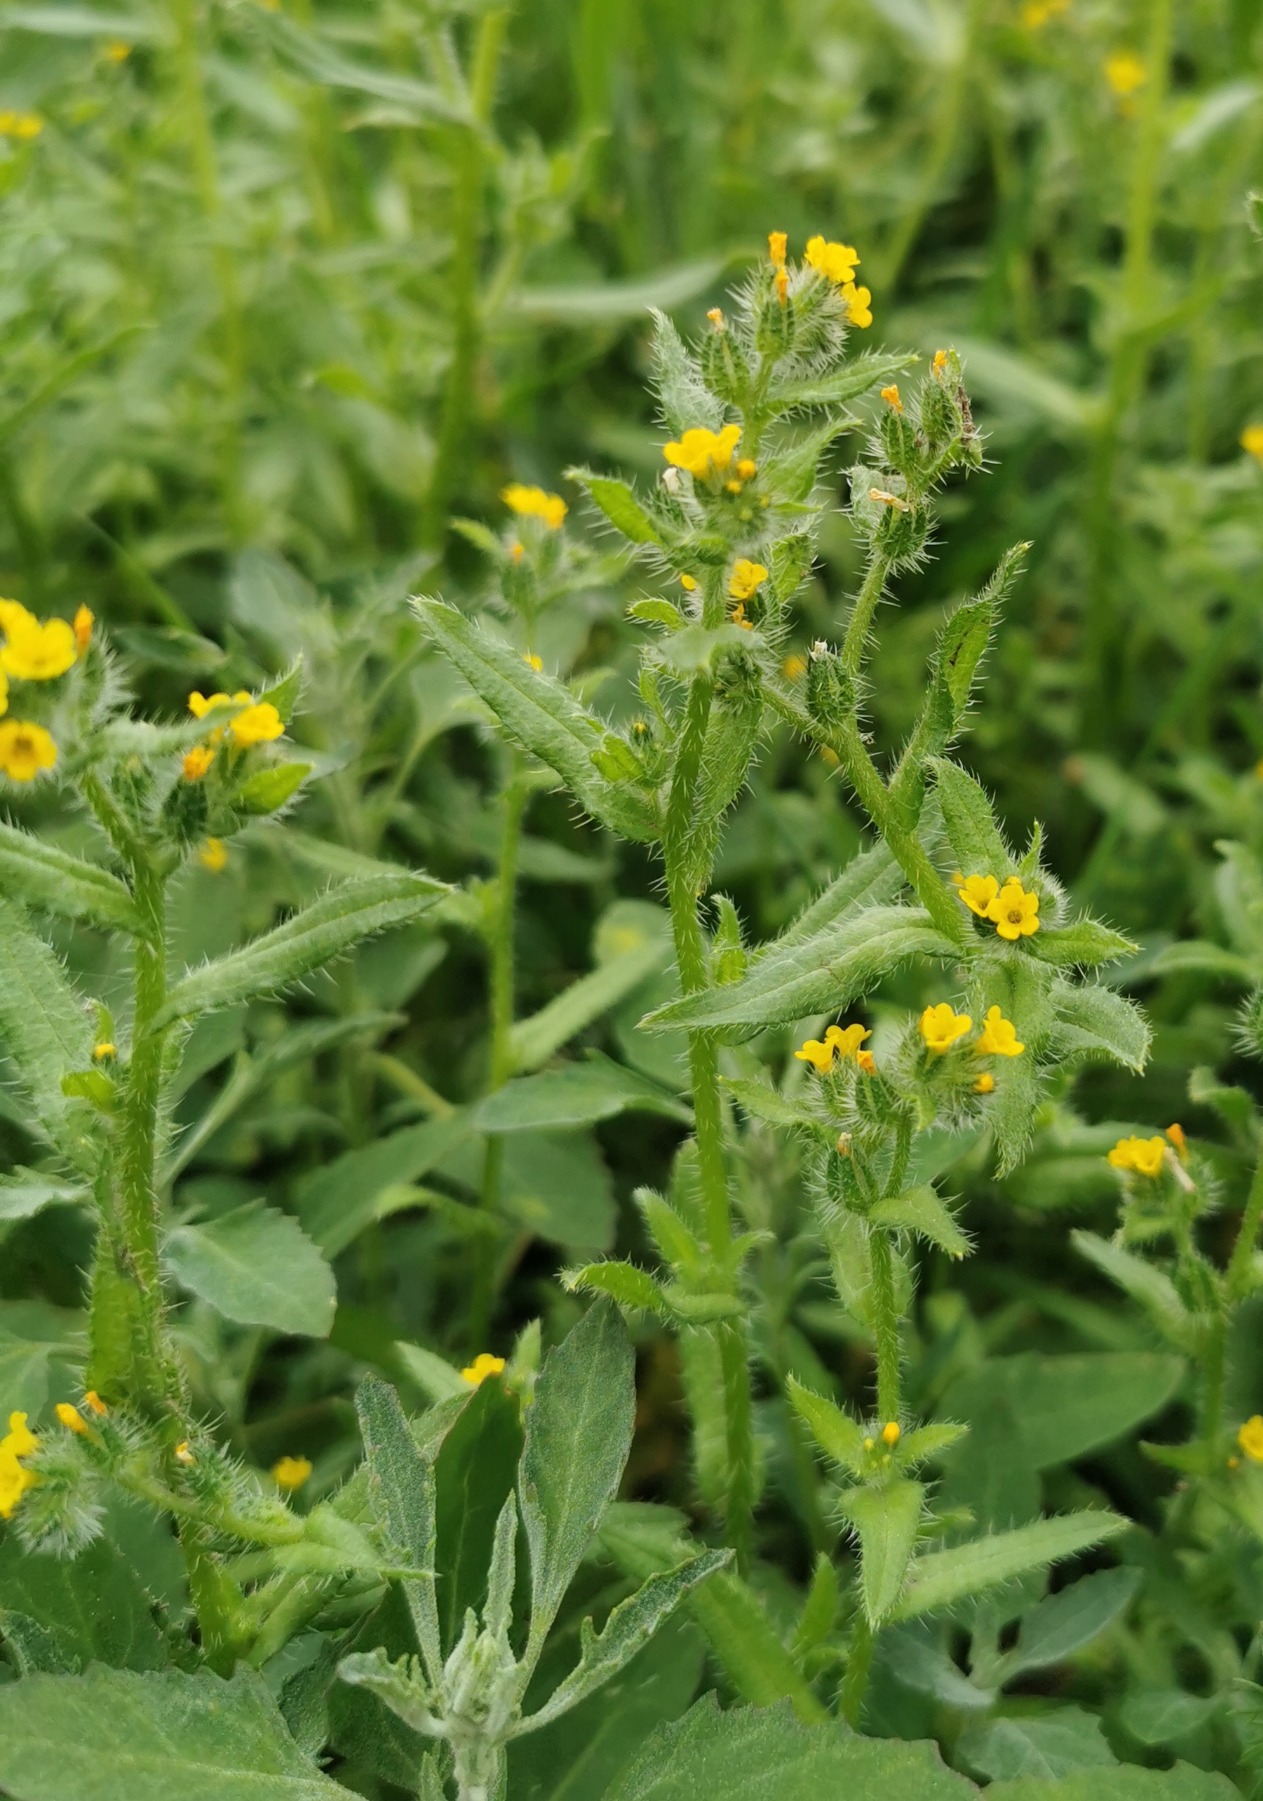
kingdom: Plantae
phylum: Tracheophyta
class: Magnoliopsida
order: Boraginales
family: Boraginaceae
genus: Amsinckia
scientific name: Amsinckia menziesii
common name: Småblomstret gulurt
